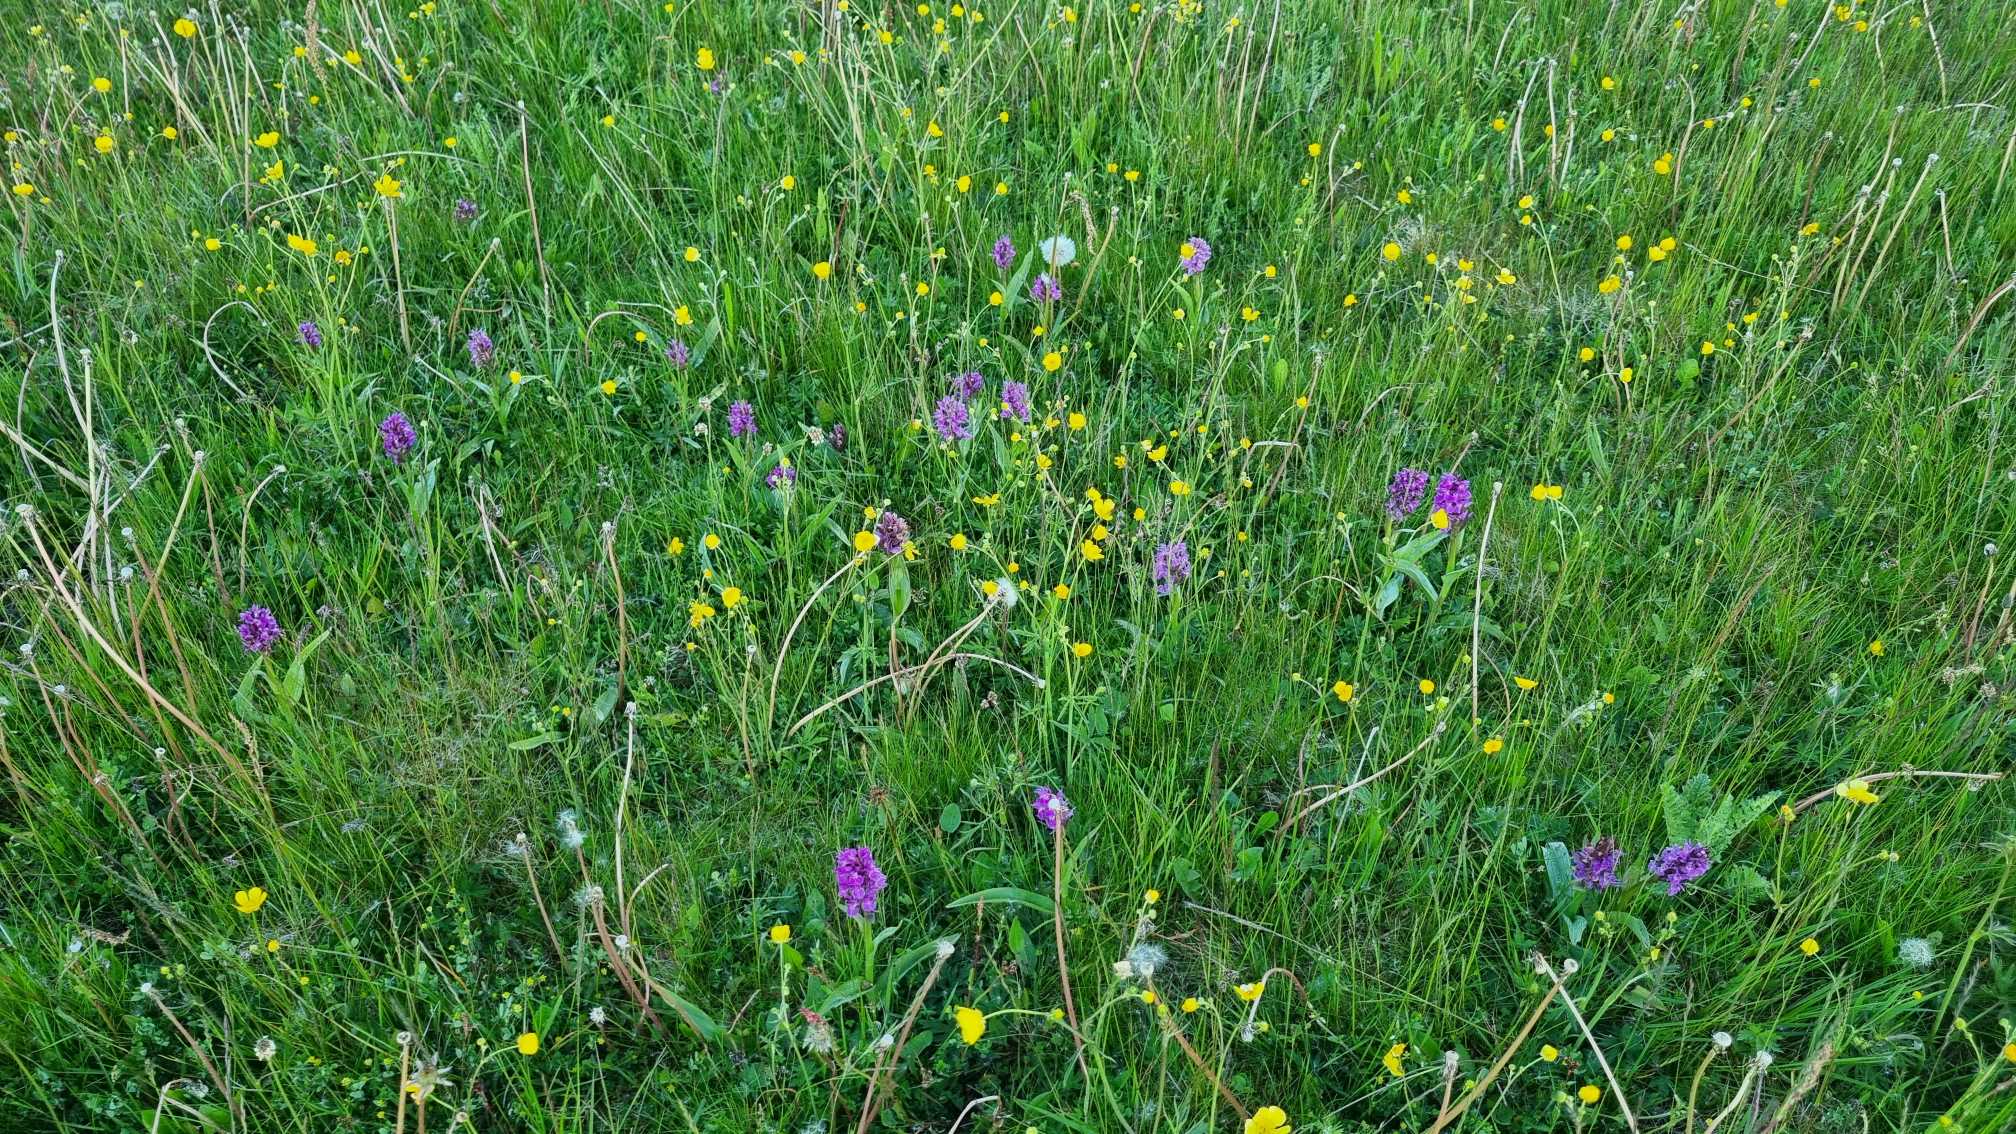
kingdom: Plantae
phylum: Tracheophyta
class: Liliopsida
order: Asparagales
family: Orchidaceae
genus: Dactylorhiza
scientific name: Dactylorhiza majalis
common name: Maj-gøgeurt
